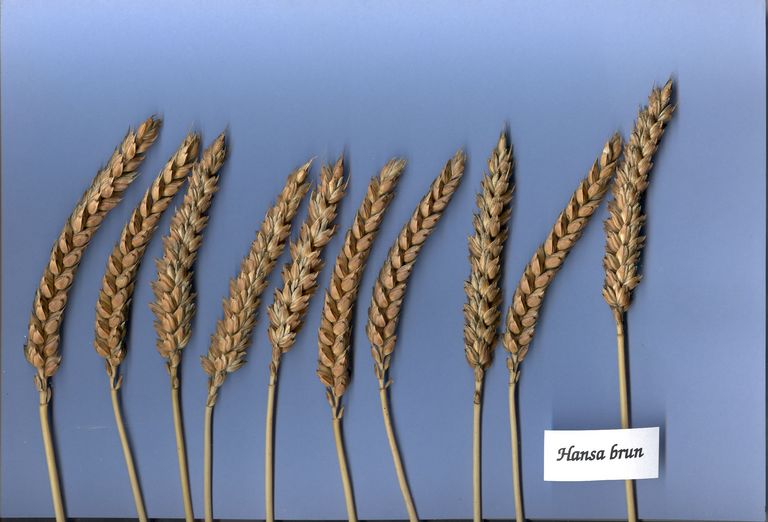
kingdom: Plantae
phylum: Tracheophyta
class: Liliopsida
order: Poales
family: Poaceae
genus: Triticum
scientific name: Triticum aestivum
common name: Common wheat
